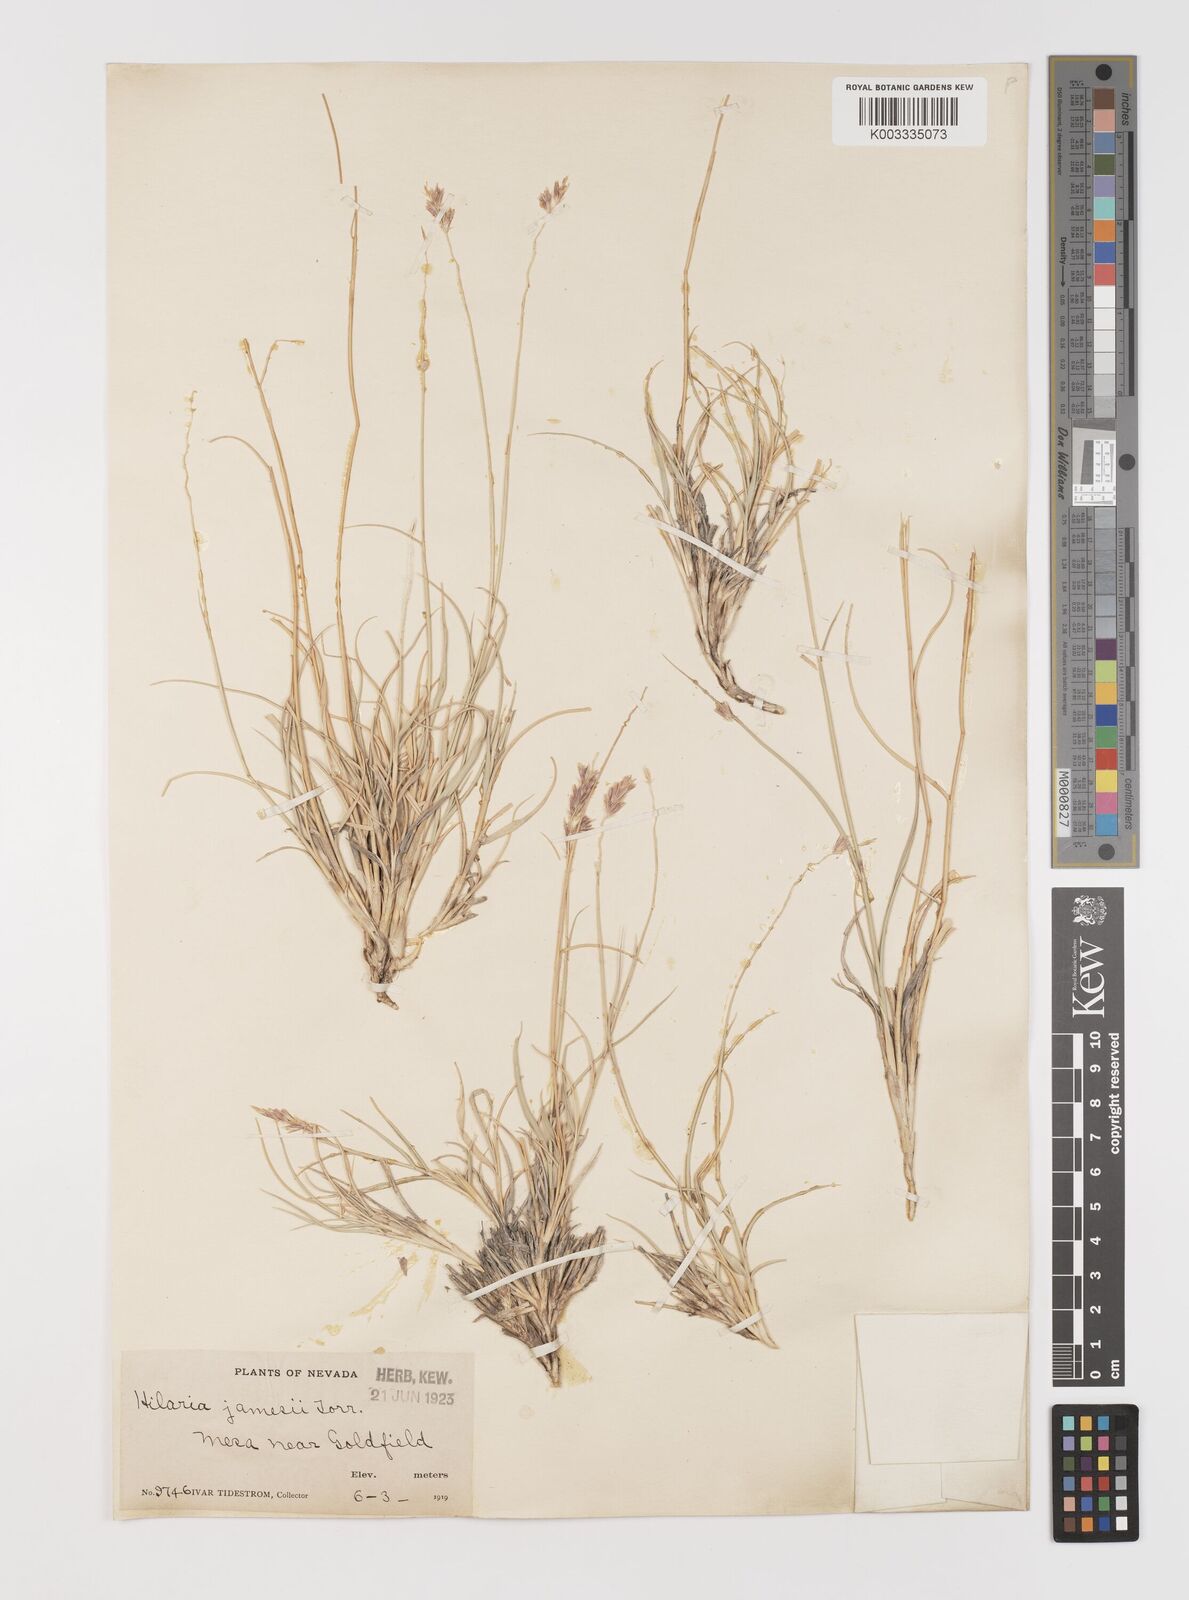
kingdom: Plantae
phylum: Tracheophyta
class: Liliopsida
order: Poales
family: Poaceae
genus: Hilaria
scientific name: Hilaria jamesii
